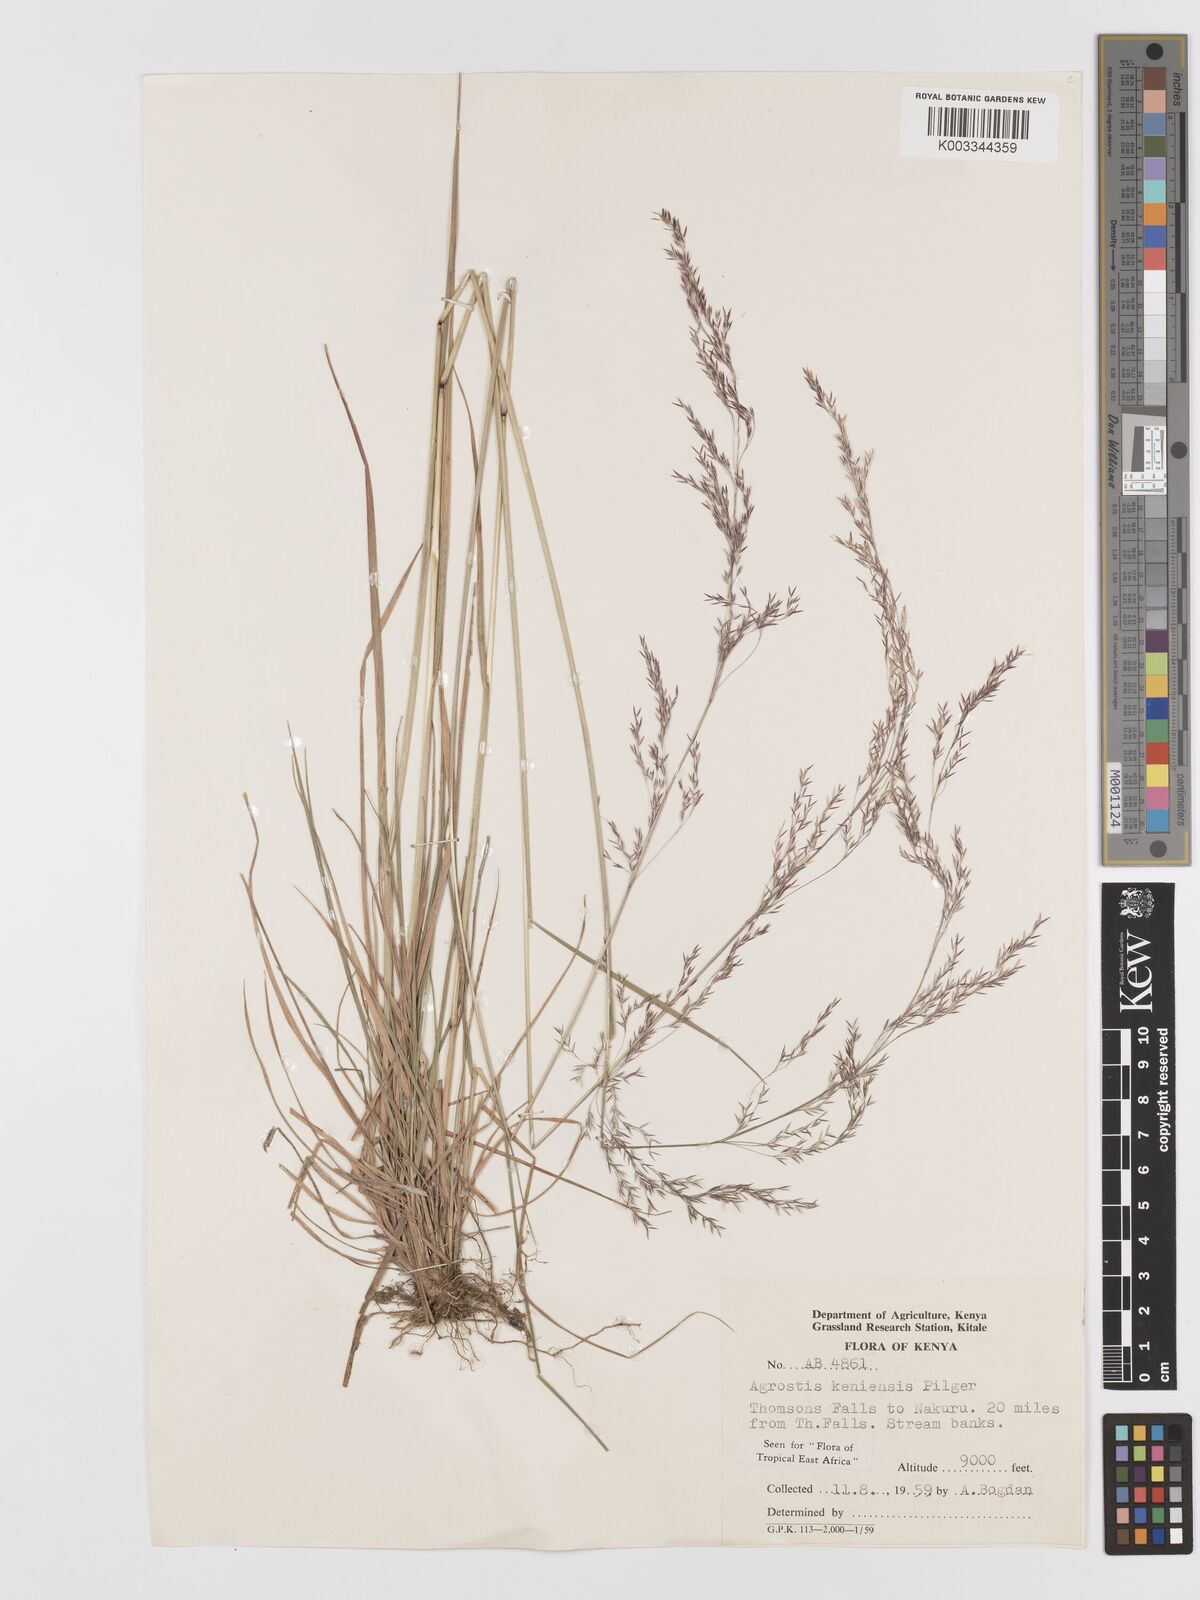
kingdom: Plantae
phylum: Tracheophyta
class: Liliopsida
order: Poales
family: Poaceae
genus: Agrostis
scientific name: Agrostis keniensis
